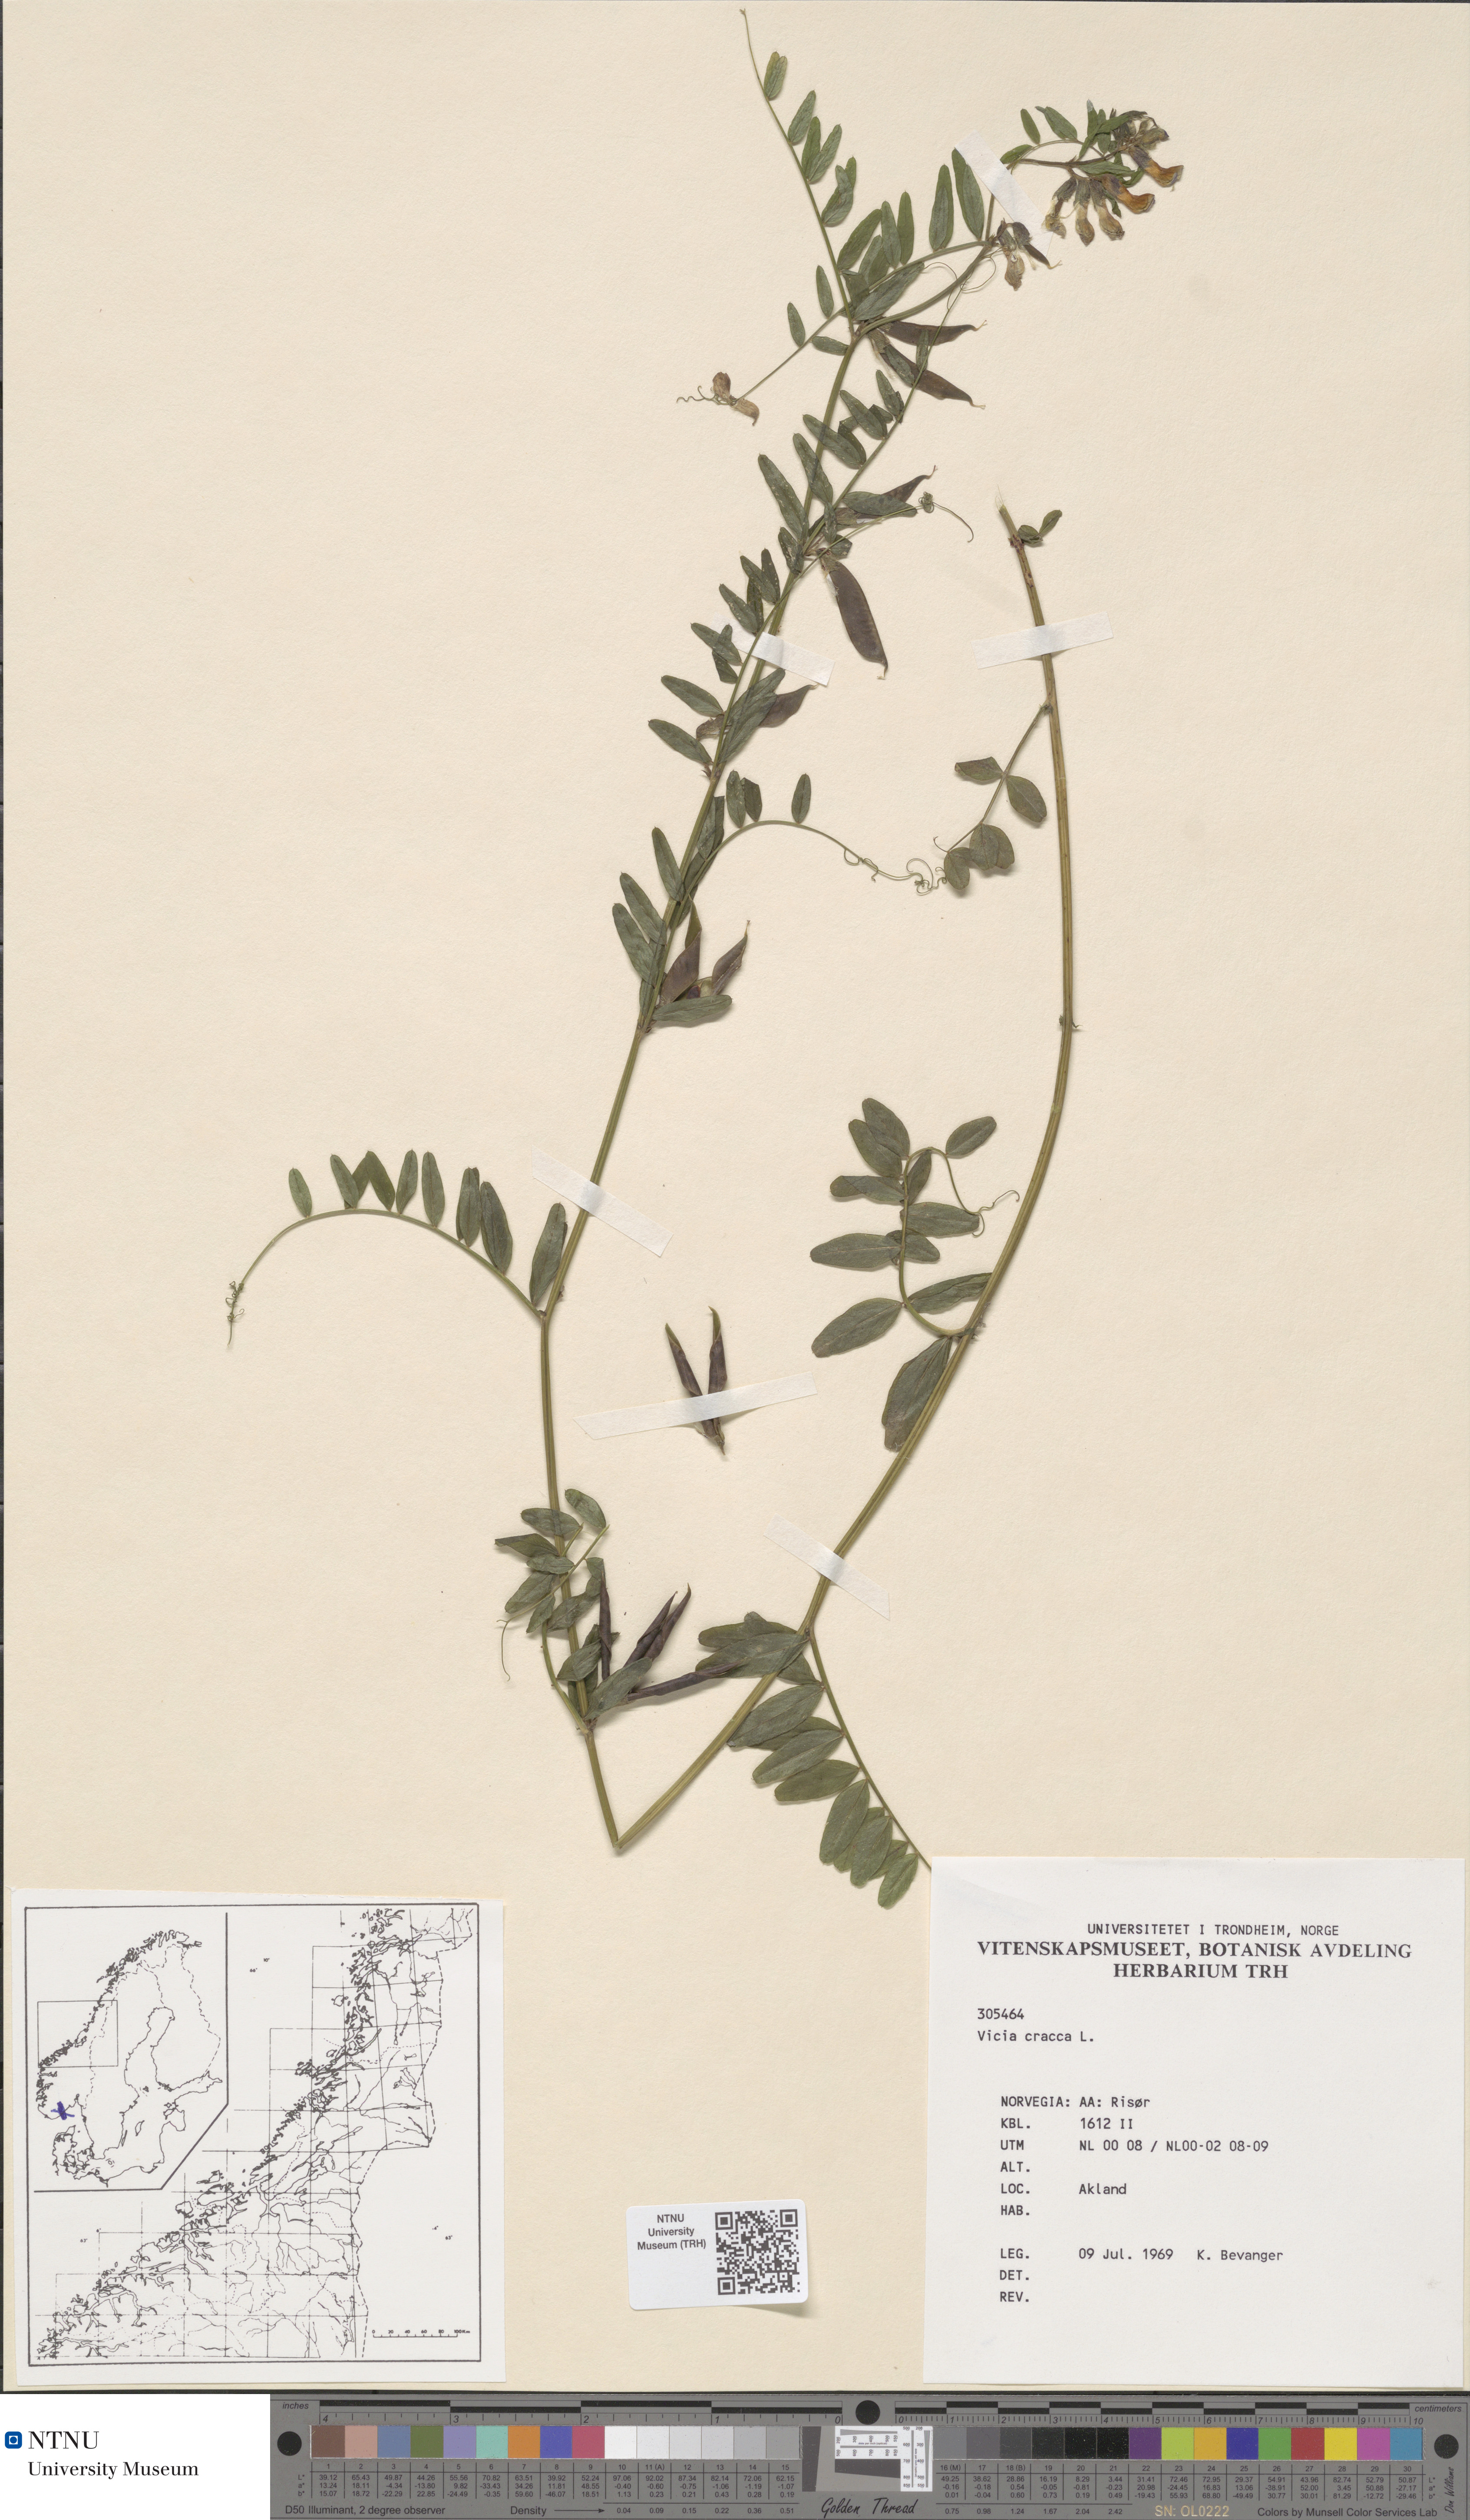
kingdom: Plantae
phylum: Tracheophyta
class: Magnoliopsida
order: Fabales
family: Fabaceae
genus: Vicia
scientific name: Vicia cracca
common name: Bird vetch
